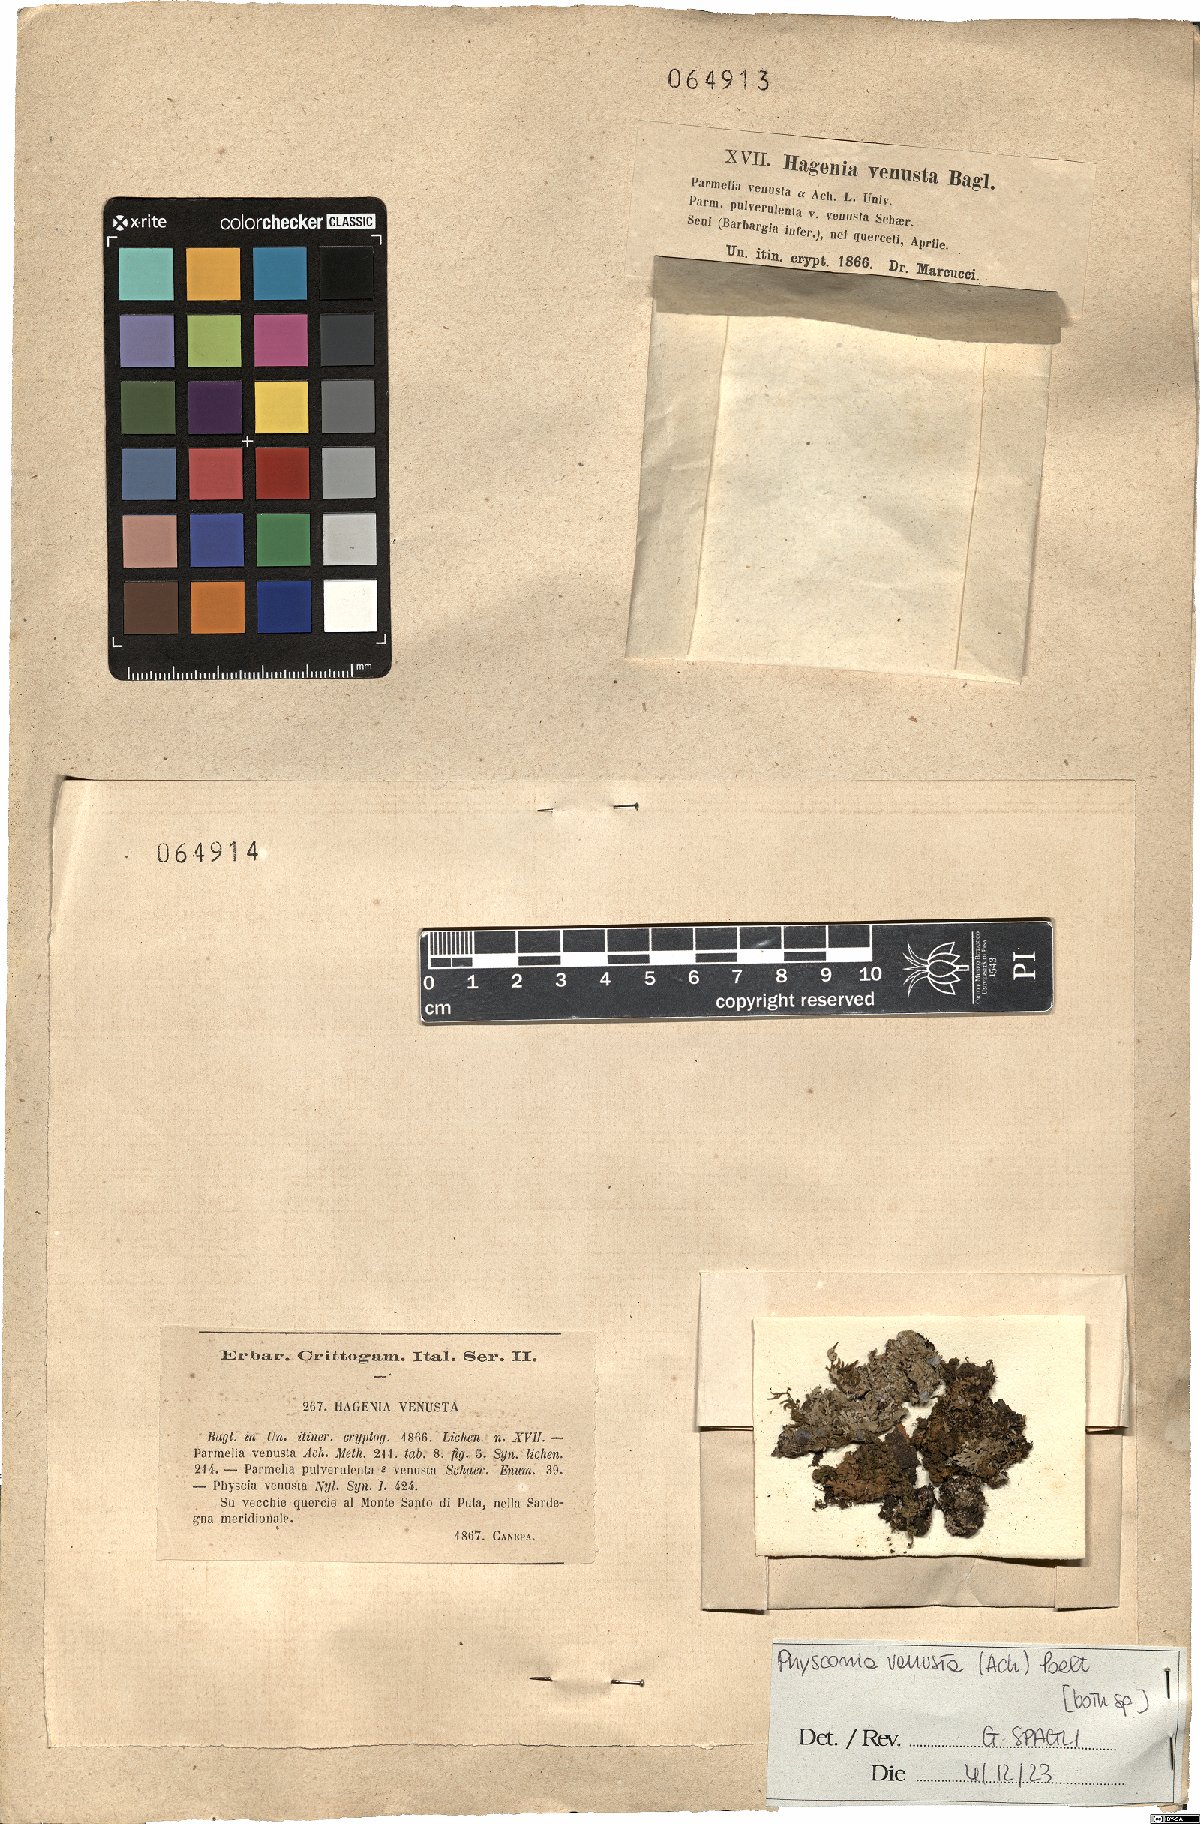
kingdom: Fungi
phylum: Ascomycota
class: Lecanoromycetes
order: Caliciales
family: Physciaceae
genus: Poeltonia
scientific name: Poeltonia venusta
